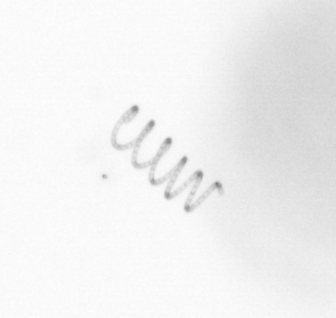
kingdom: Chromista
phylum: Ochrophyta
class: Bacillariophyceae
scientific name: Bacillariophyceae
